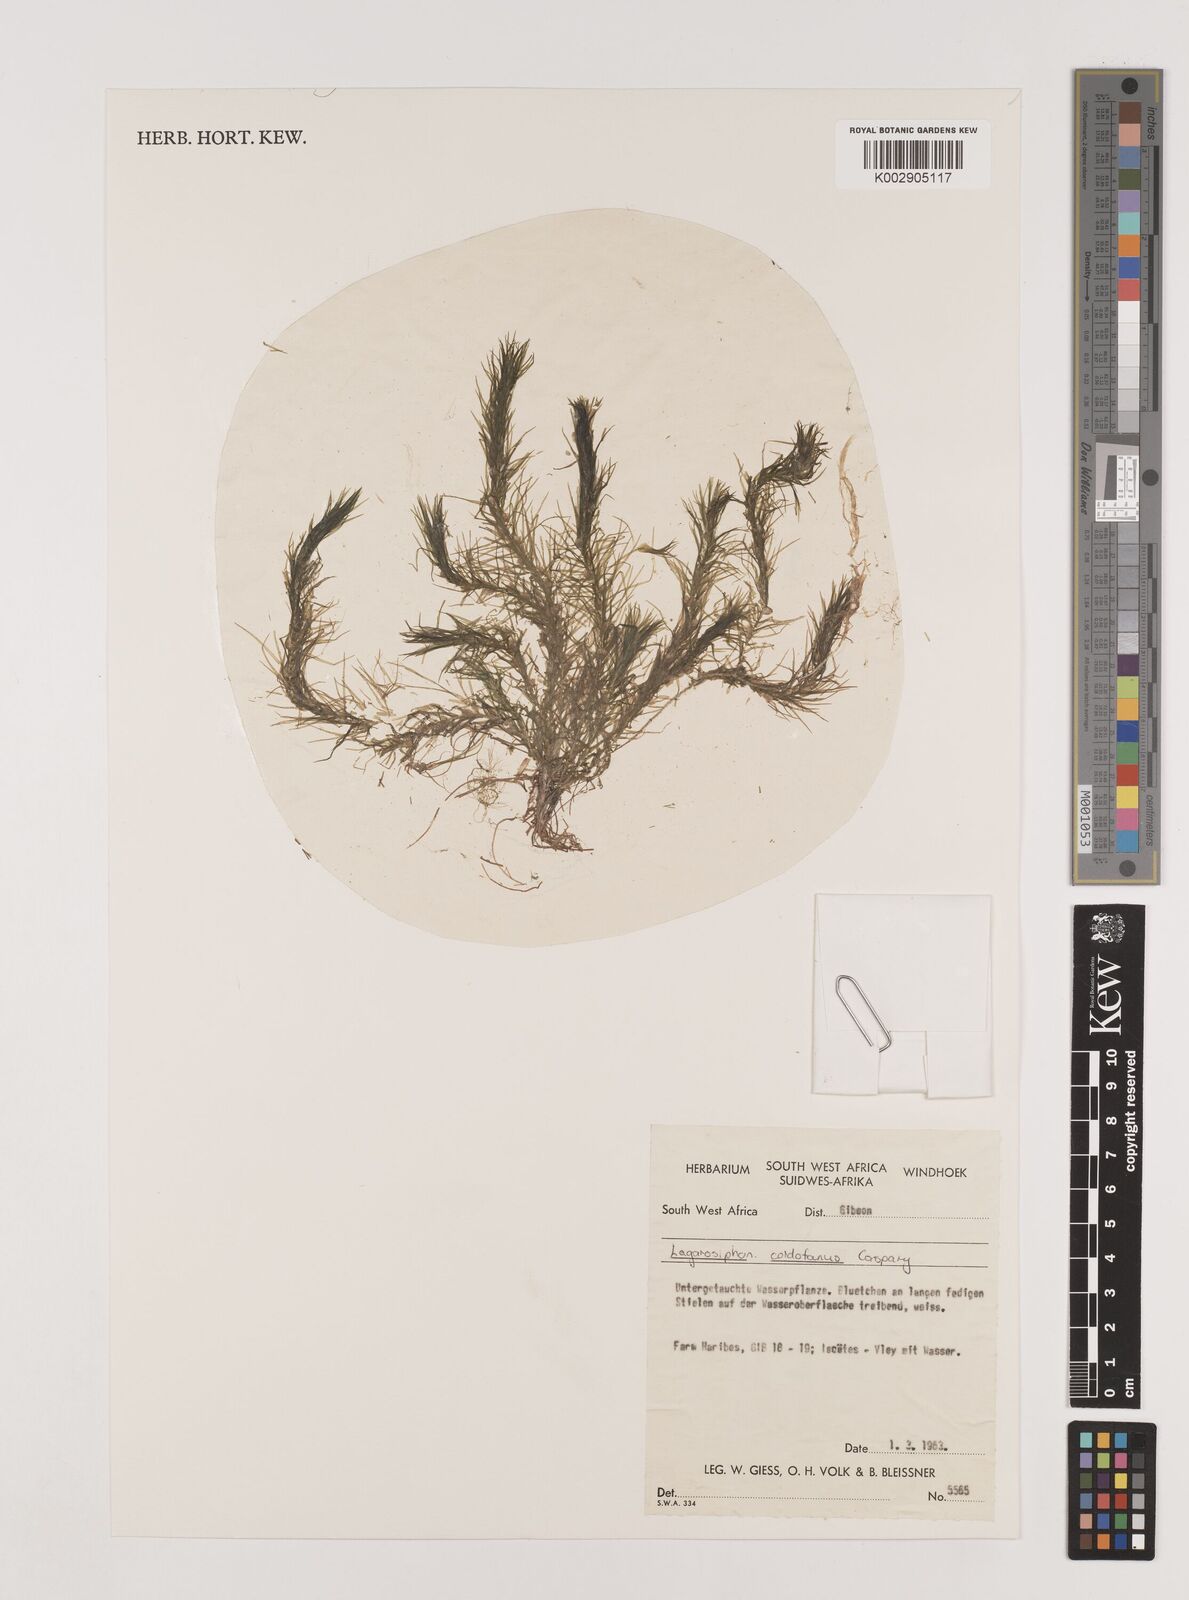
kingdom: Plantae
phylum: Tracheophyta
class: Liliopsida
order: Alismatales
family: Hydrocharitaceae
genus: Lagarosiphon
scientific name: Lagarosiphon cordofanus
